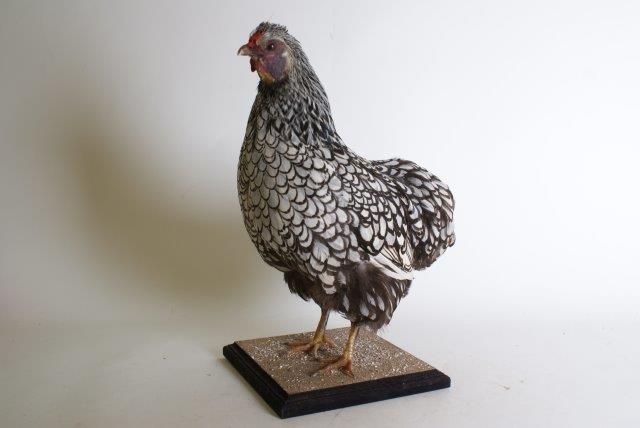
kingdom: Animalia
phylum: Chordata
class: Aves
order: Galliformes
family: Phasianidae
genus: Gallus
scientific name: Gallus gallus
